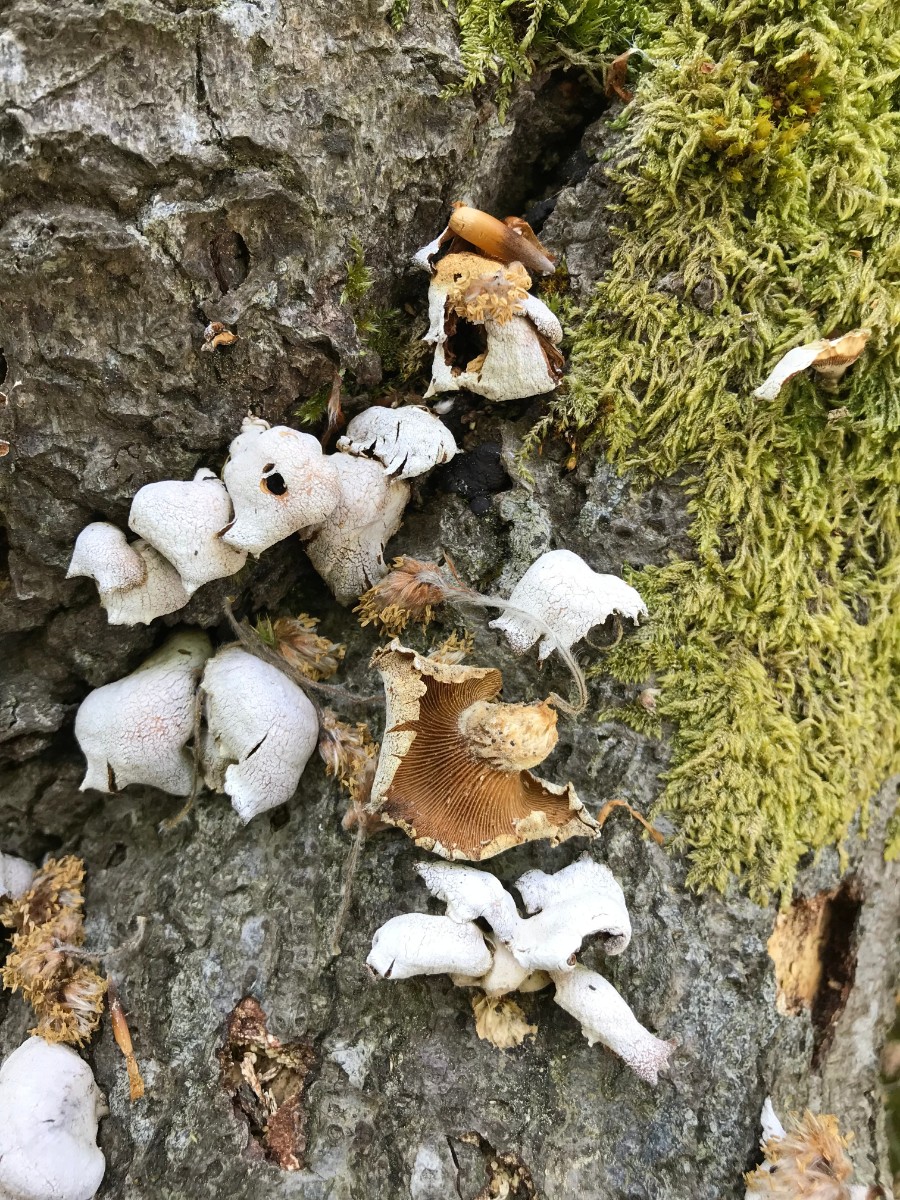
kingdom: Fungi
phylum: Basidiomycota
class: Agaricomycetes
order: Agaricales
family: Mycenaceae
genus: Panellus
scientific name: Panellus stipticus
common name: kliddet epaulethat
